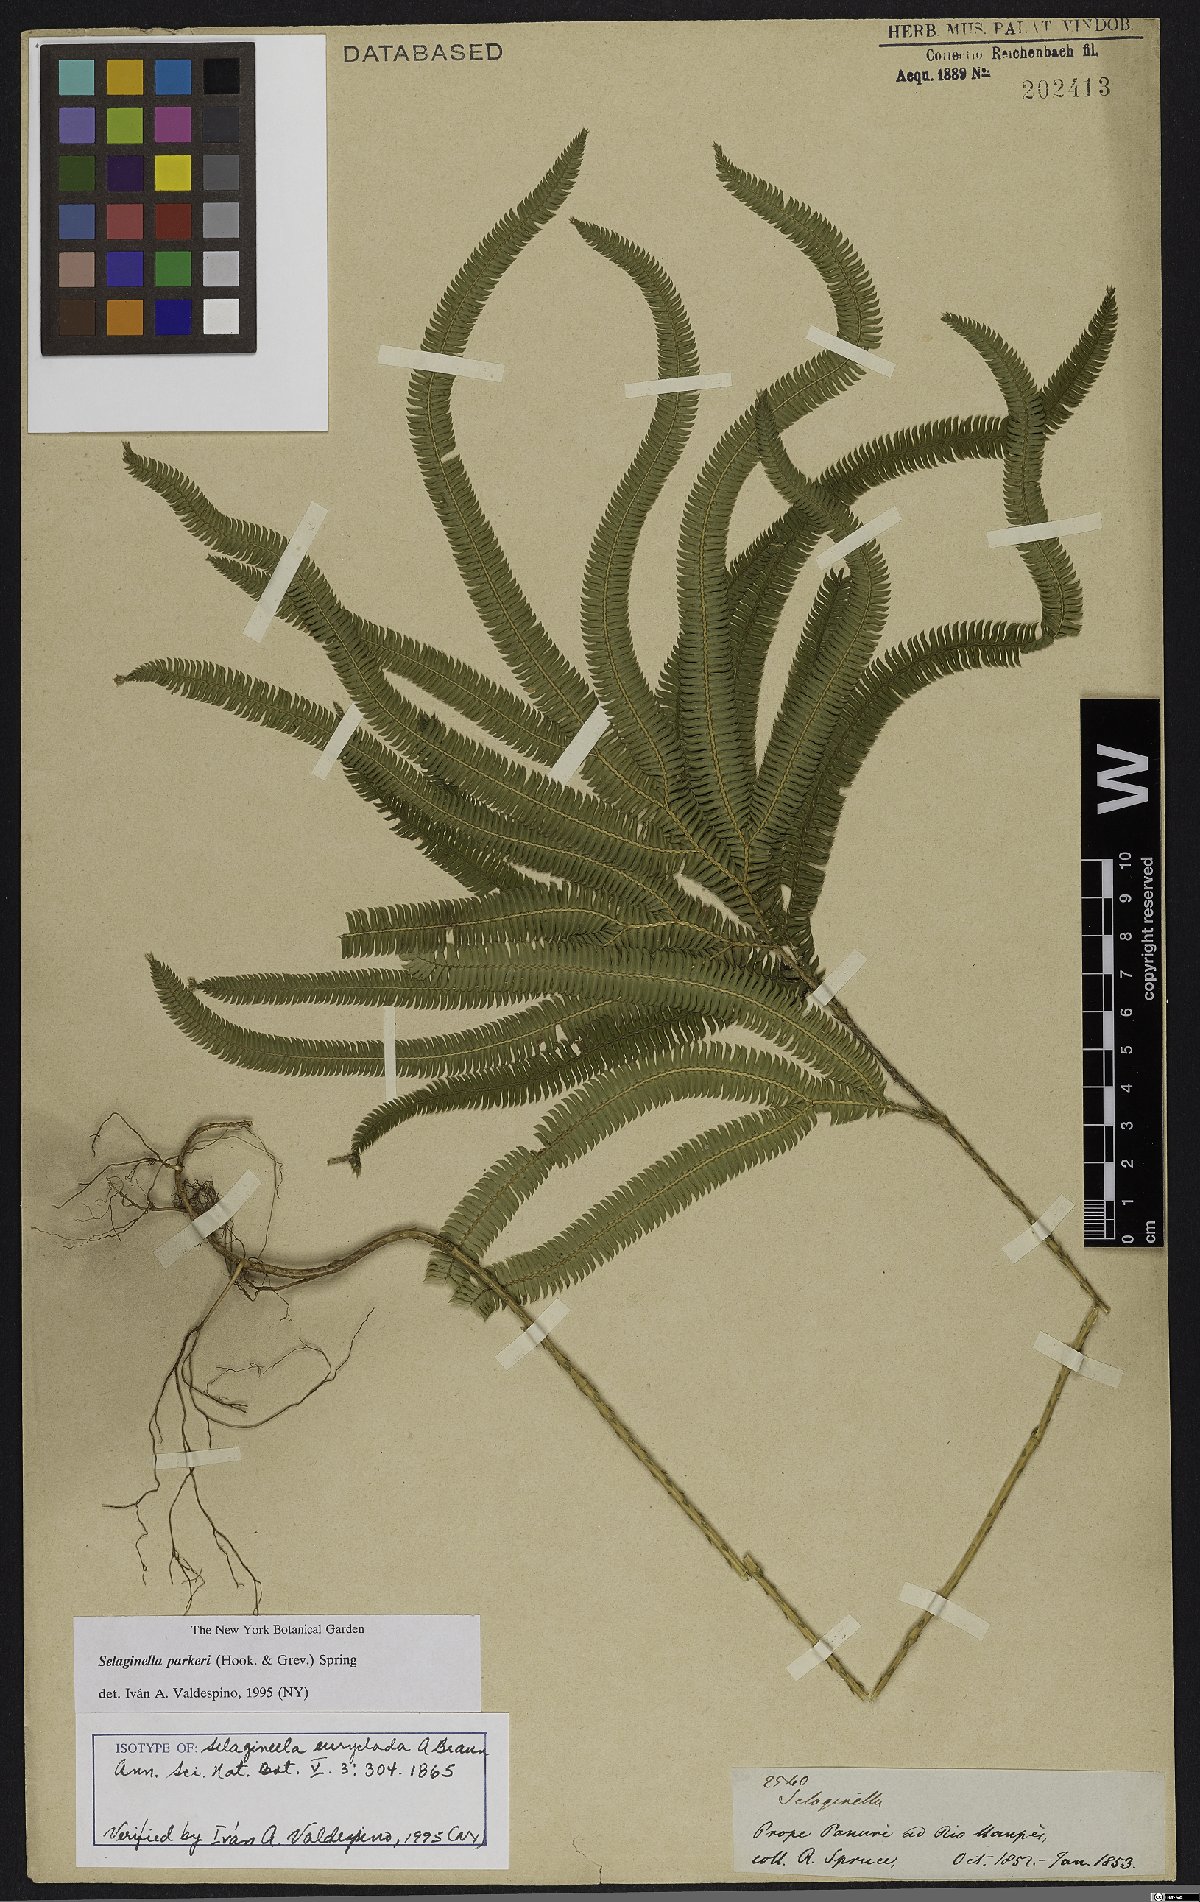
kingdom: Plantae
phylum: Tracheophyta
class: Lycopodiopsida
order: Selaginellales
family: Selaginellaceae
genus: Selaginella
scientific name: Selaginella parkeri
